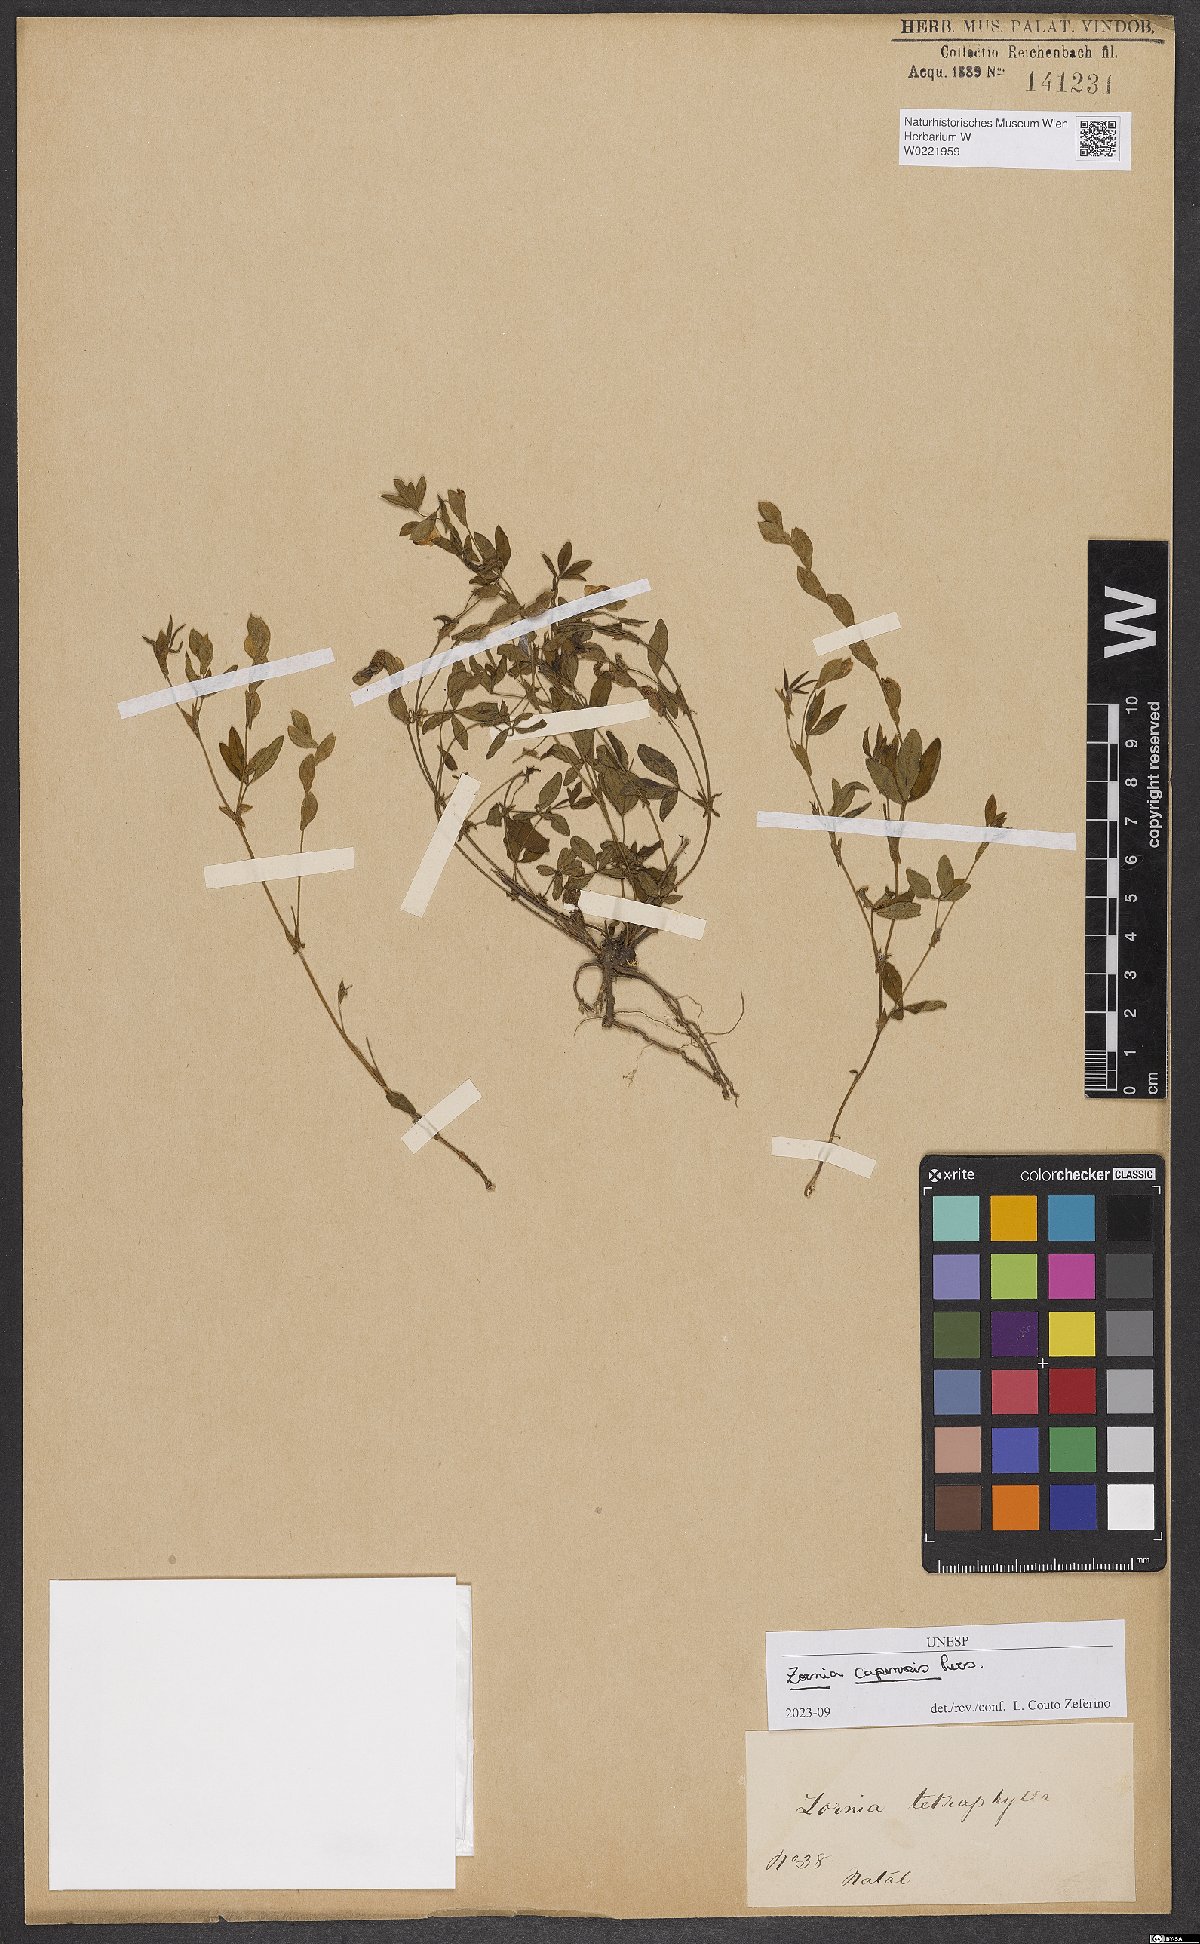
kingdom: Plantae
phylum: Tracheophyta
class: Magnoliopsida
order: Fabales
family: Fabaceae
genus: Zornia
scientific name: Zornia capensis
